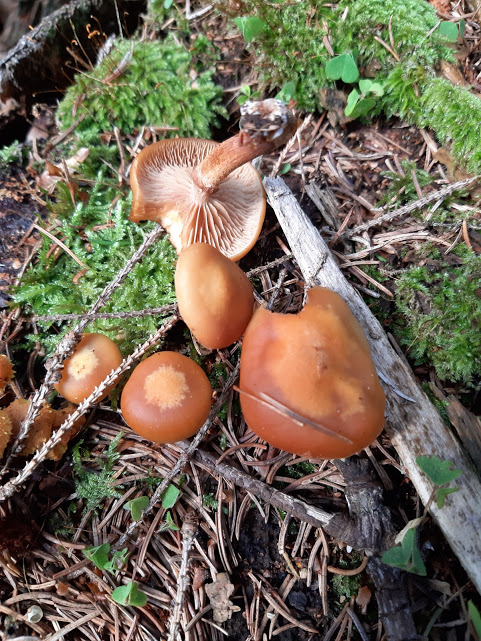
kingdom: Fungi
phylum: Basidiomycota
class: Agaricomycetes
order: Agaricales
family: Strophariaceae
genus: Kuehneromyces
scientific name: Kuehneromyces mutabilis
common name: foranderlig skælhat
